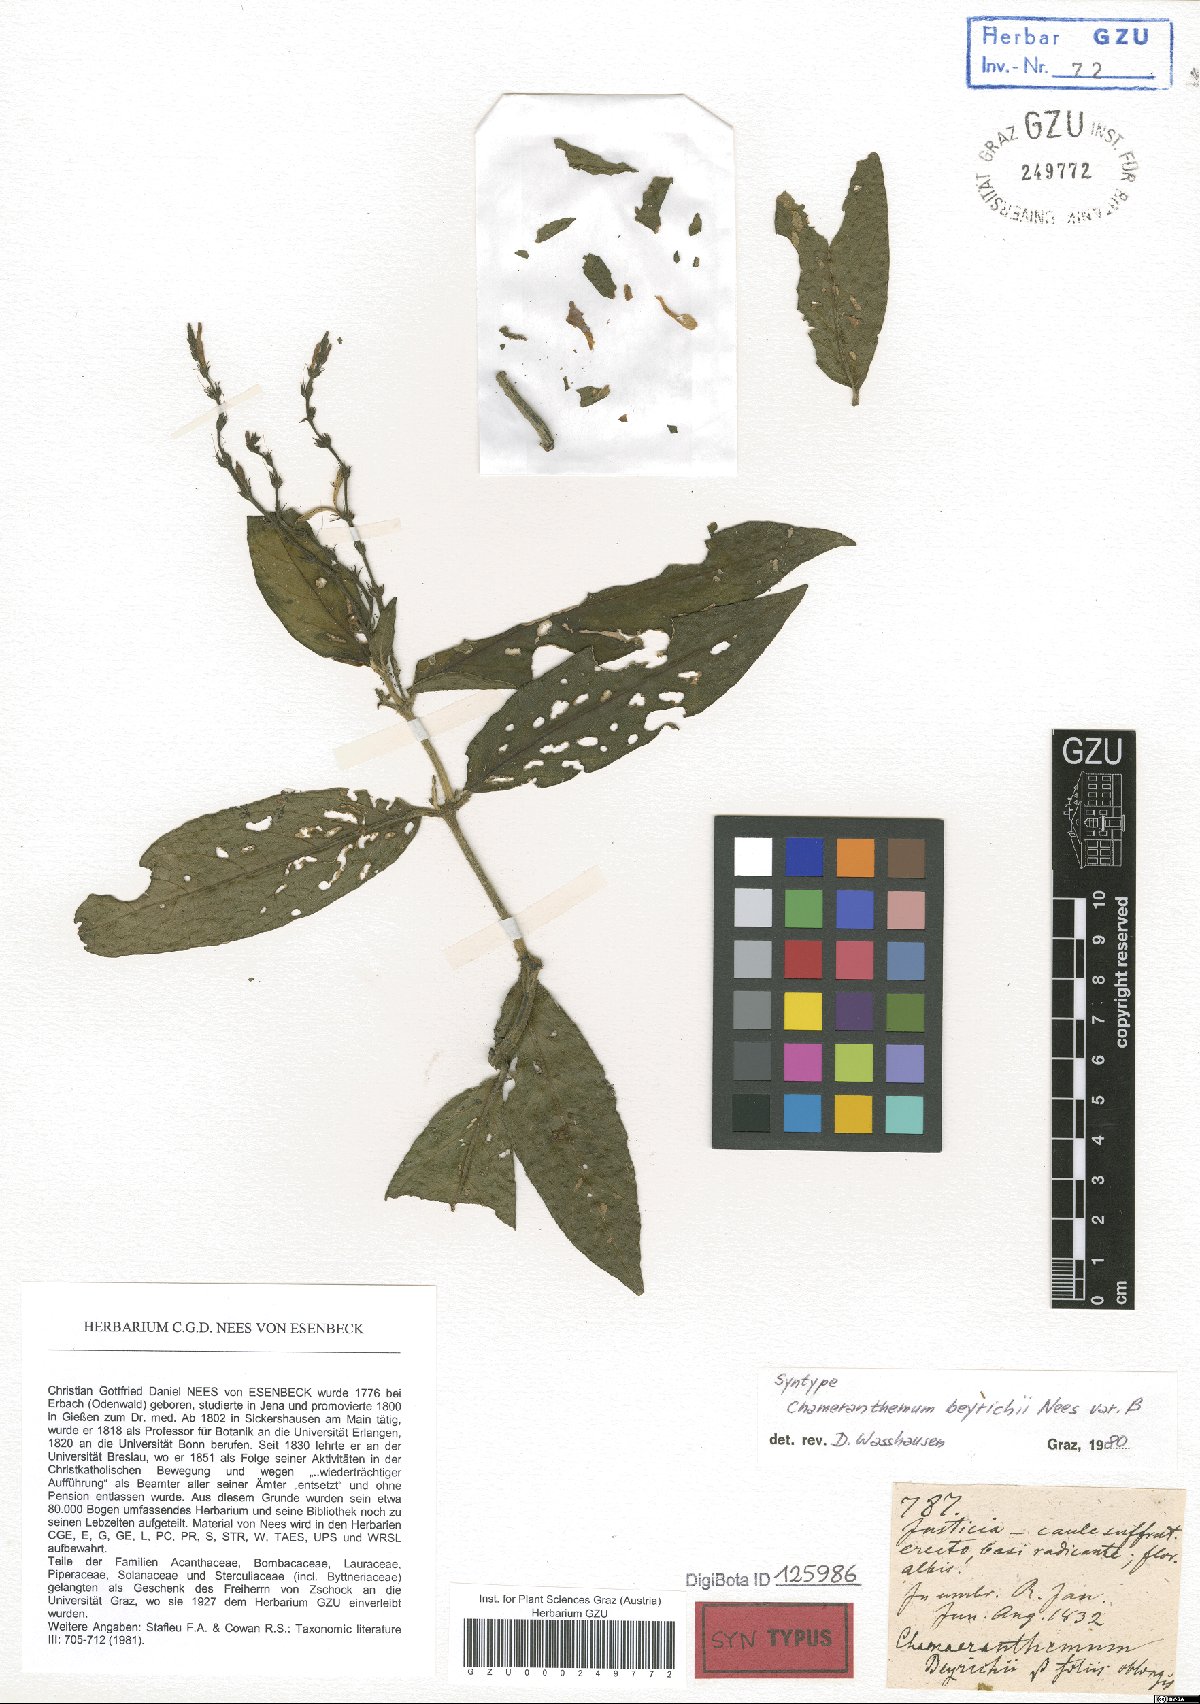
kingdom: Plantae
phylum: Tracheophyta
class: Magnoliopsida
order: Lamiales
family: Acanthaceae
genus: Chamaeranthemum
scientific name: Chamaeranthemum beyrichii
